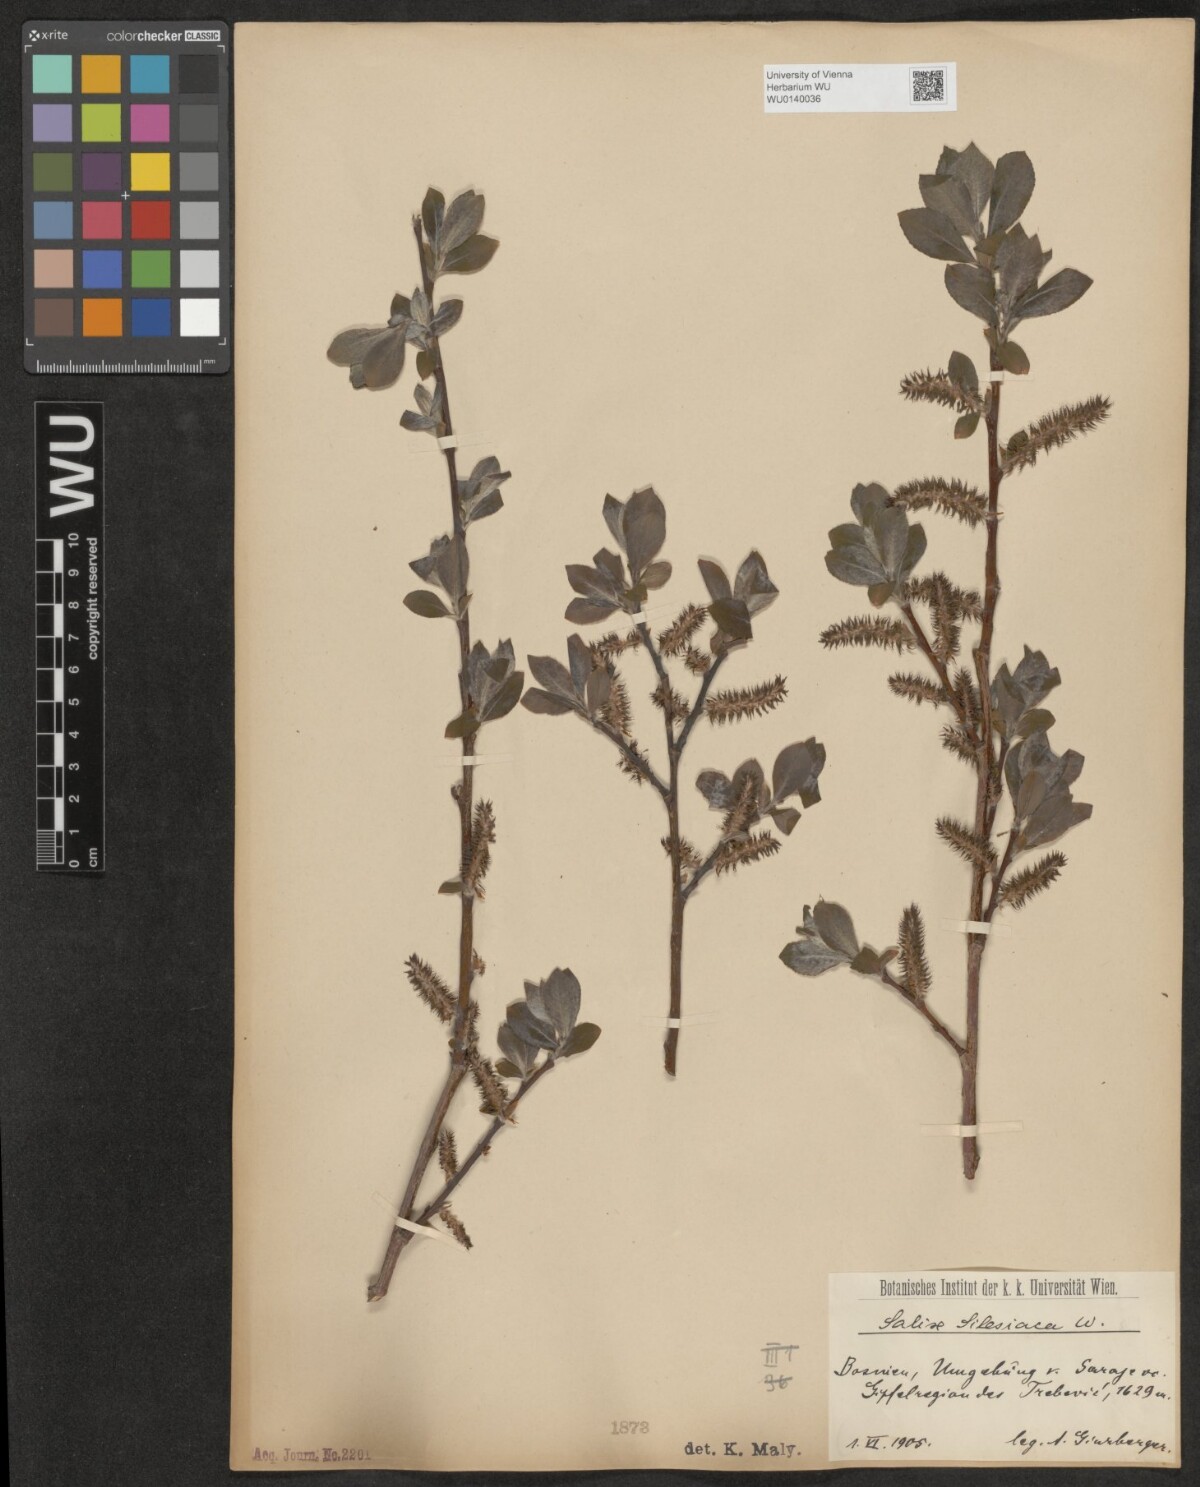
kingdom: Plantae
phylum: Tracheophyta
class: Magnoliopsida
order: Malpighiales
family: Salicaceae
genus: Salix
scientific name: Salix silesiaca
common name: Silesian willow
